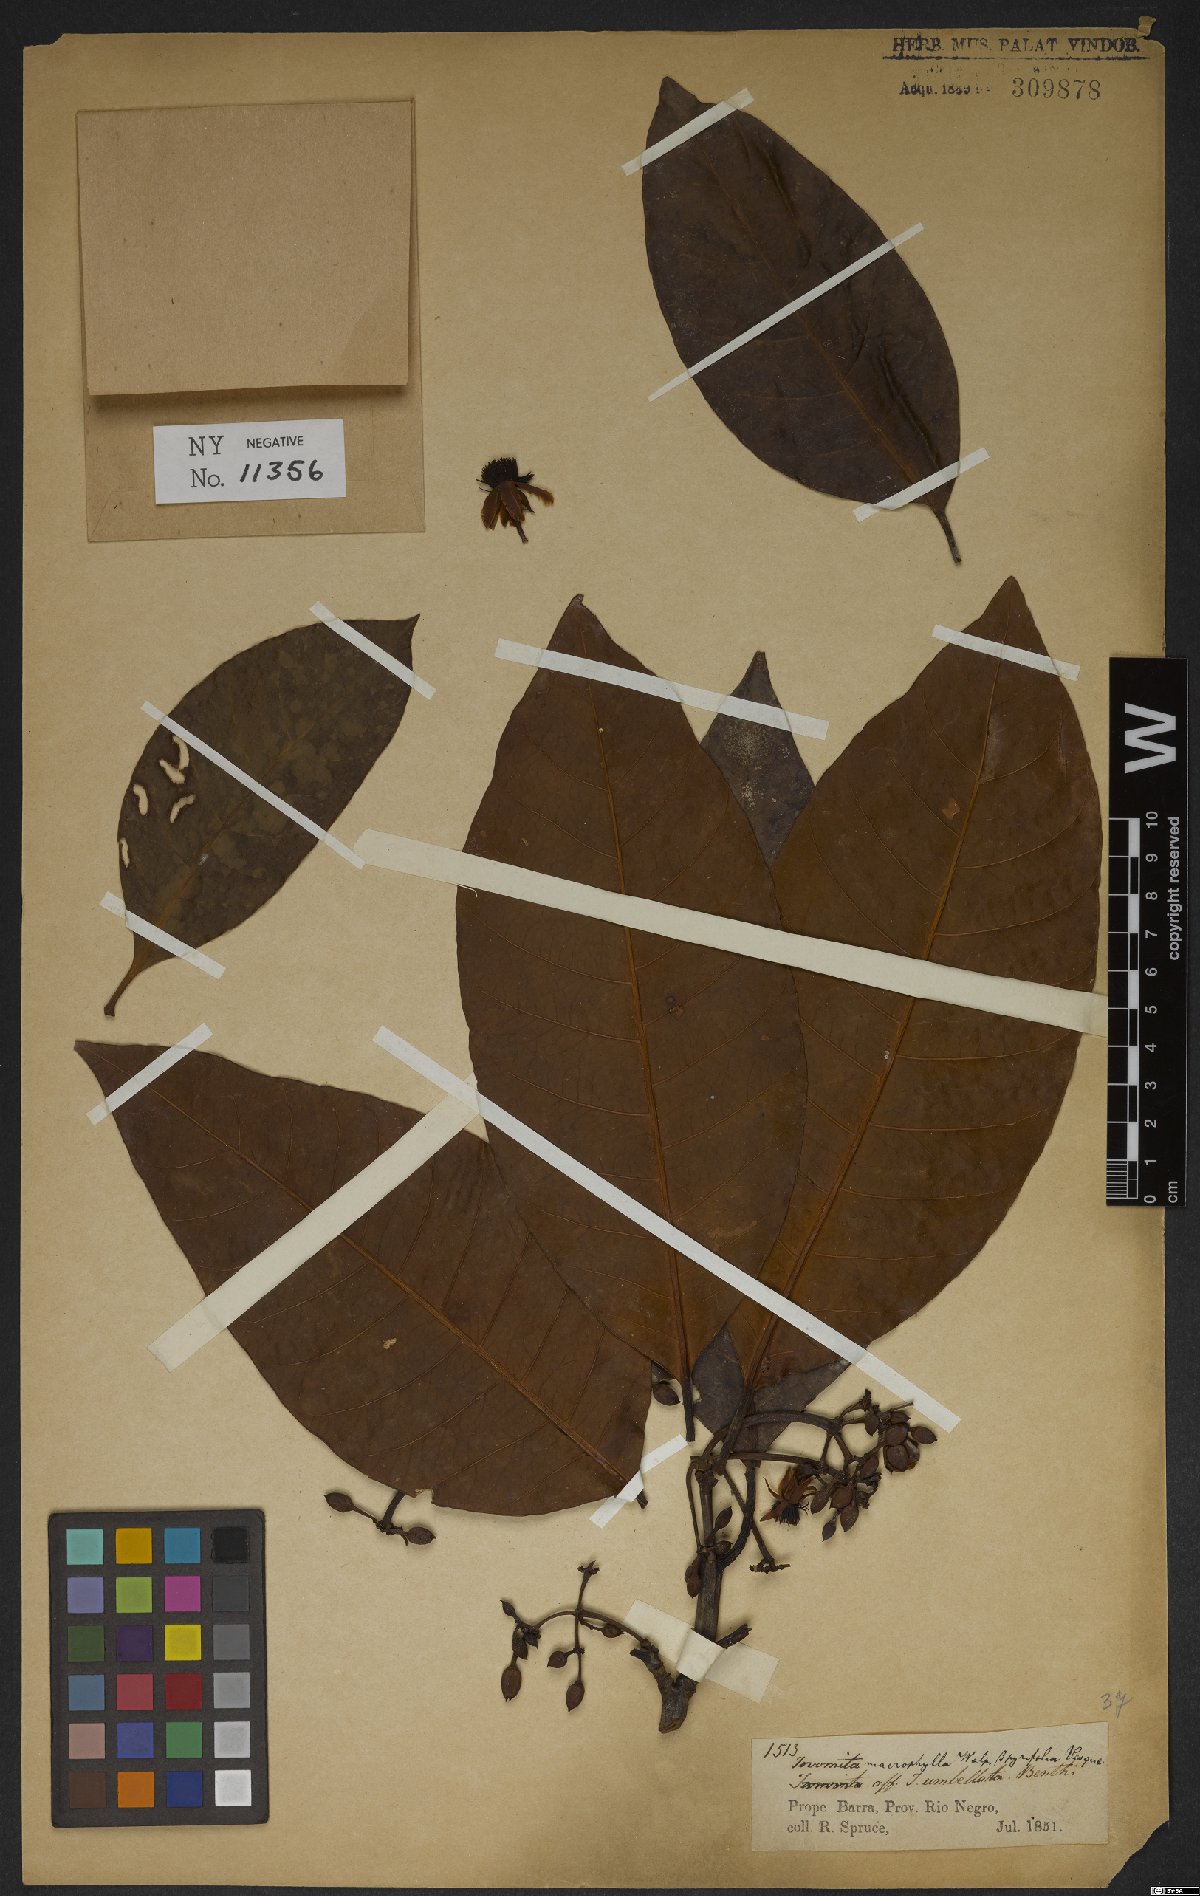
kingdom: Plantae
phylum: Tracheophyta
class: Magnoliopsida
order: Malpighiales
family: Clusiaceae
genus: Tovomita
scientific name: Tovomita macrophylla
